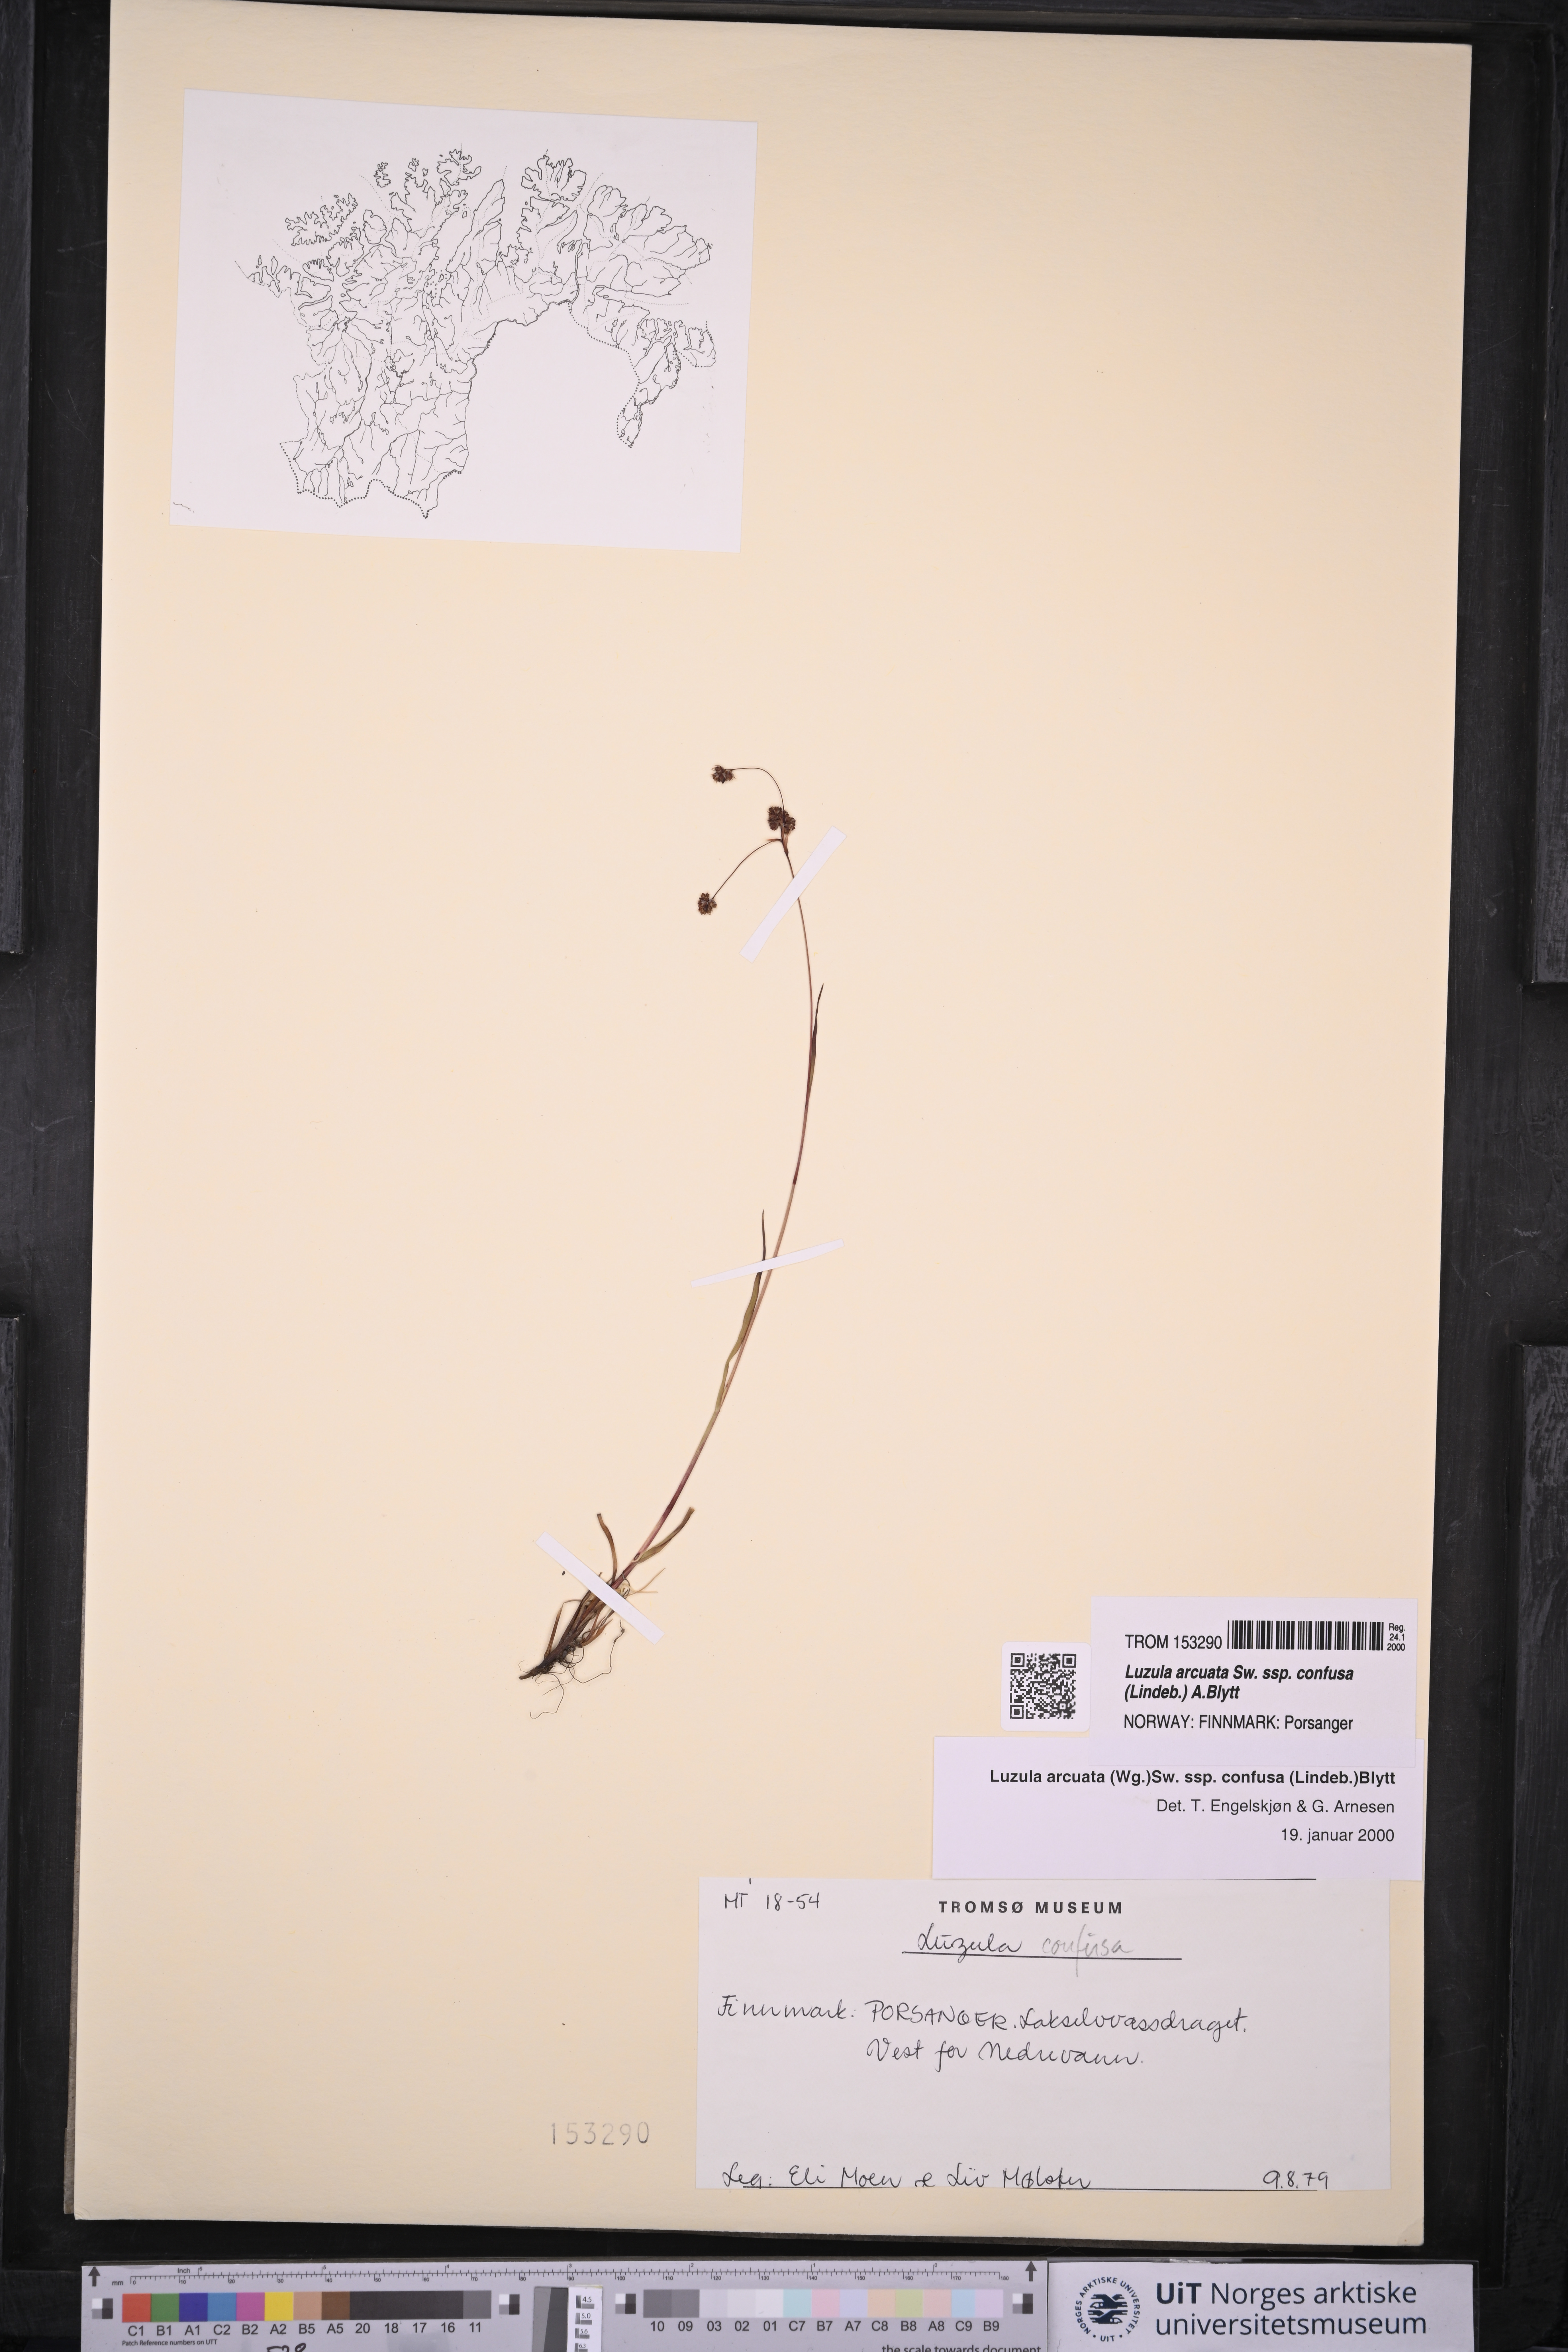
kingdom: Plantae
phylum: Tracheophyta
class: Liliopsida
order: Poales
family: Juncaceae
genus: Luzula
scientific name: Luzula confusa
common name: Northern wood rush
